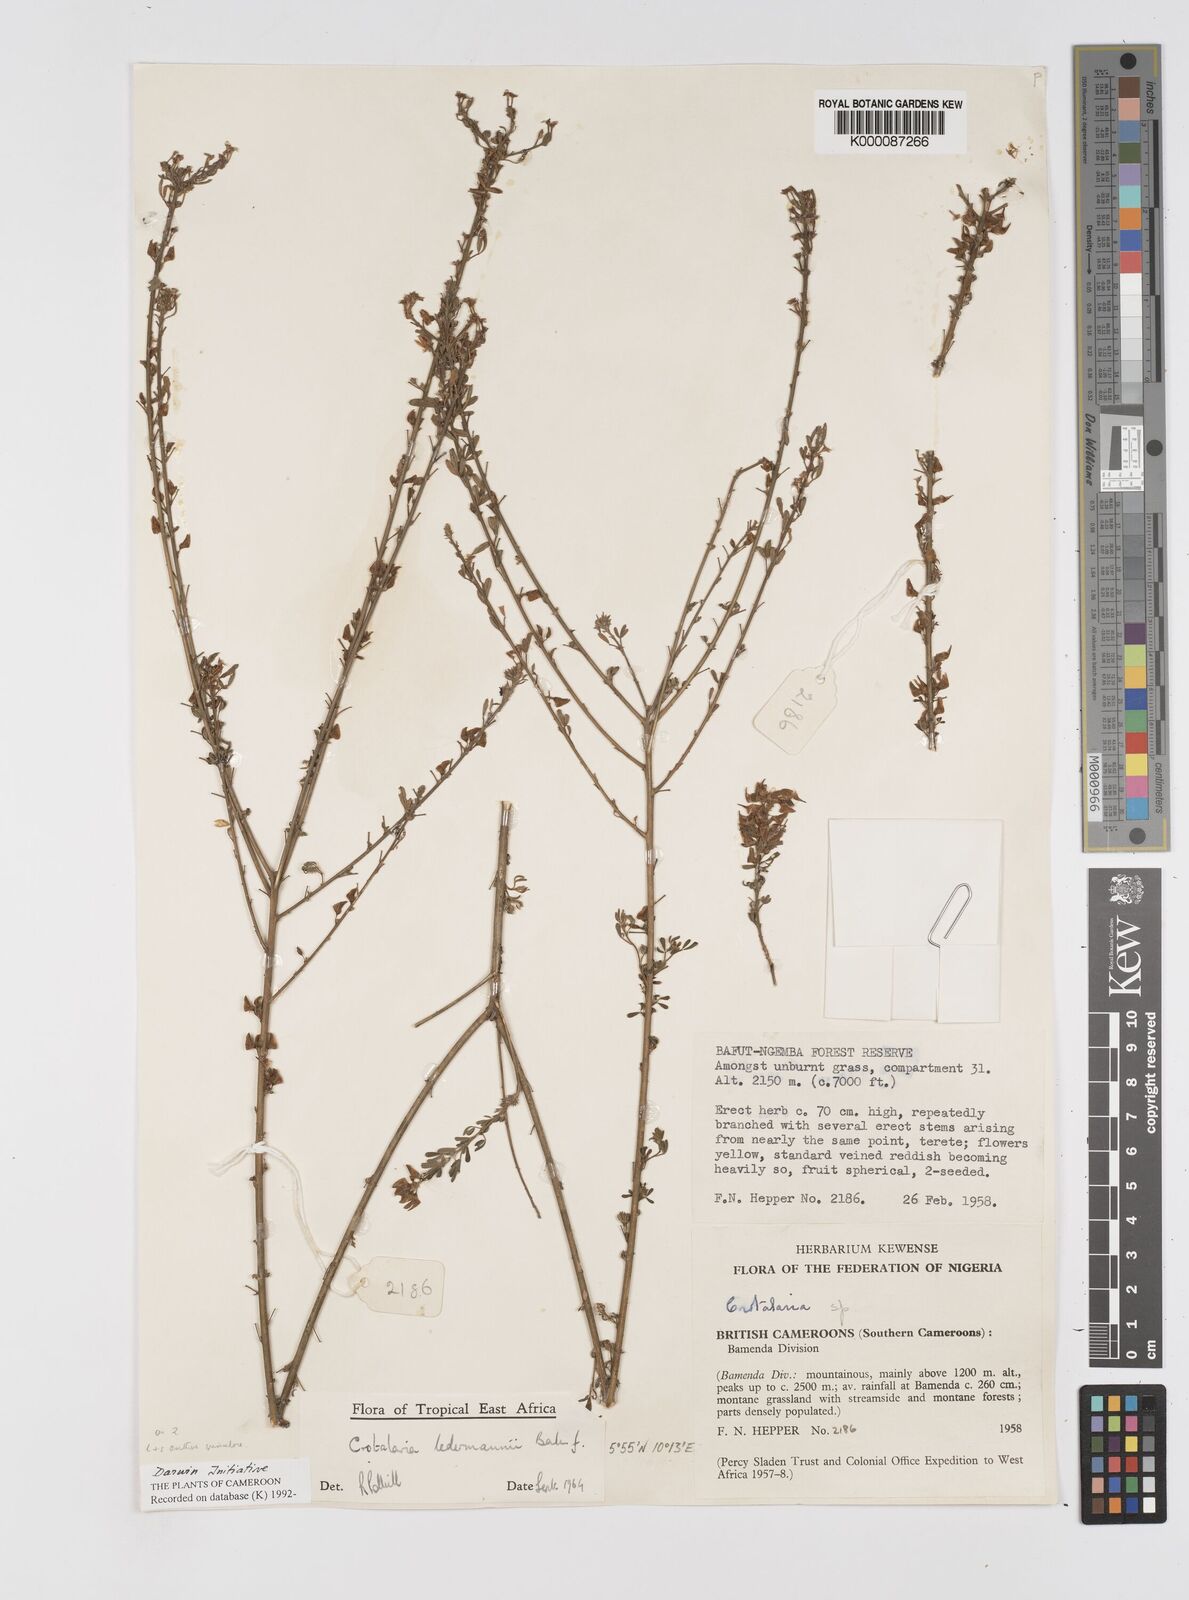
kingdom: Plantae
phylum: Tracheophyta
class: Magnoliopsida
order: Fabales
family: Fabaceae
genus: Crotalaria
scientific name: Crotalaria ledermannii
